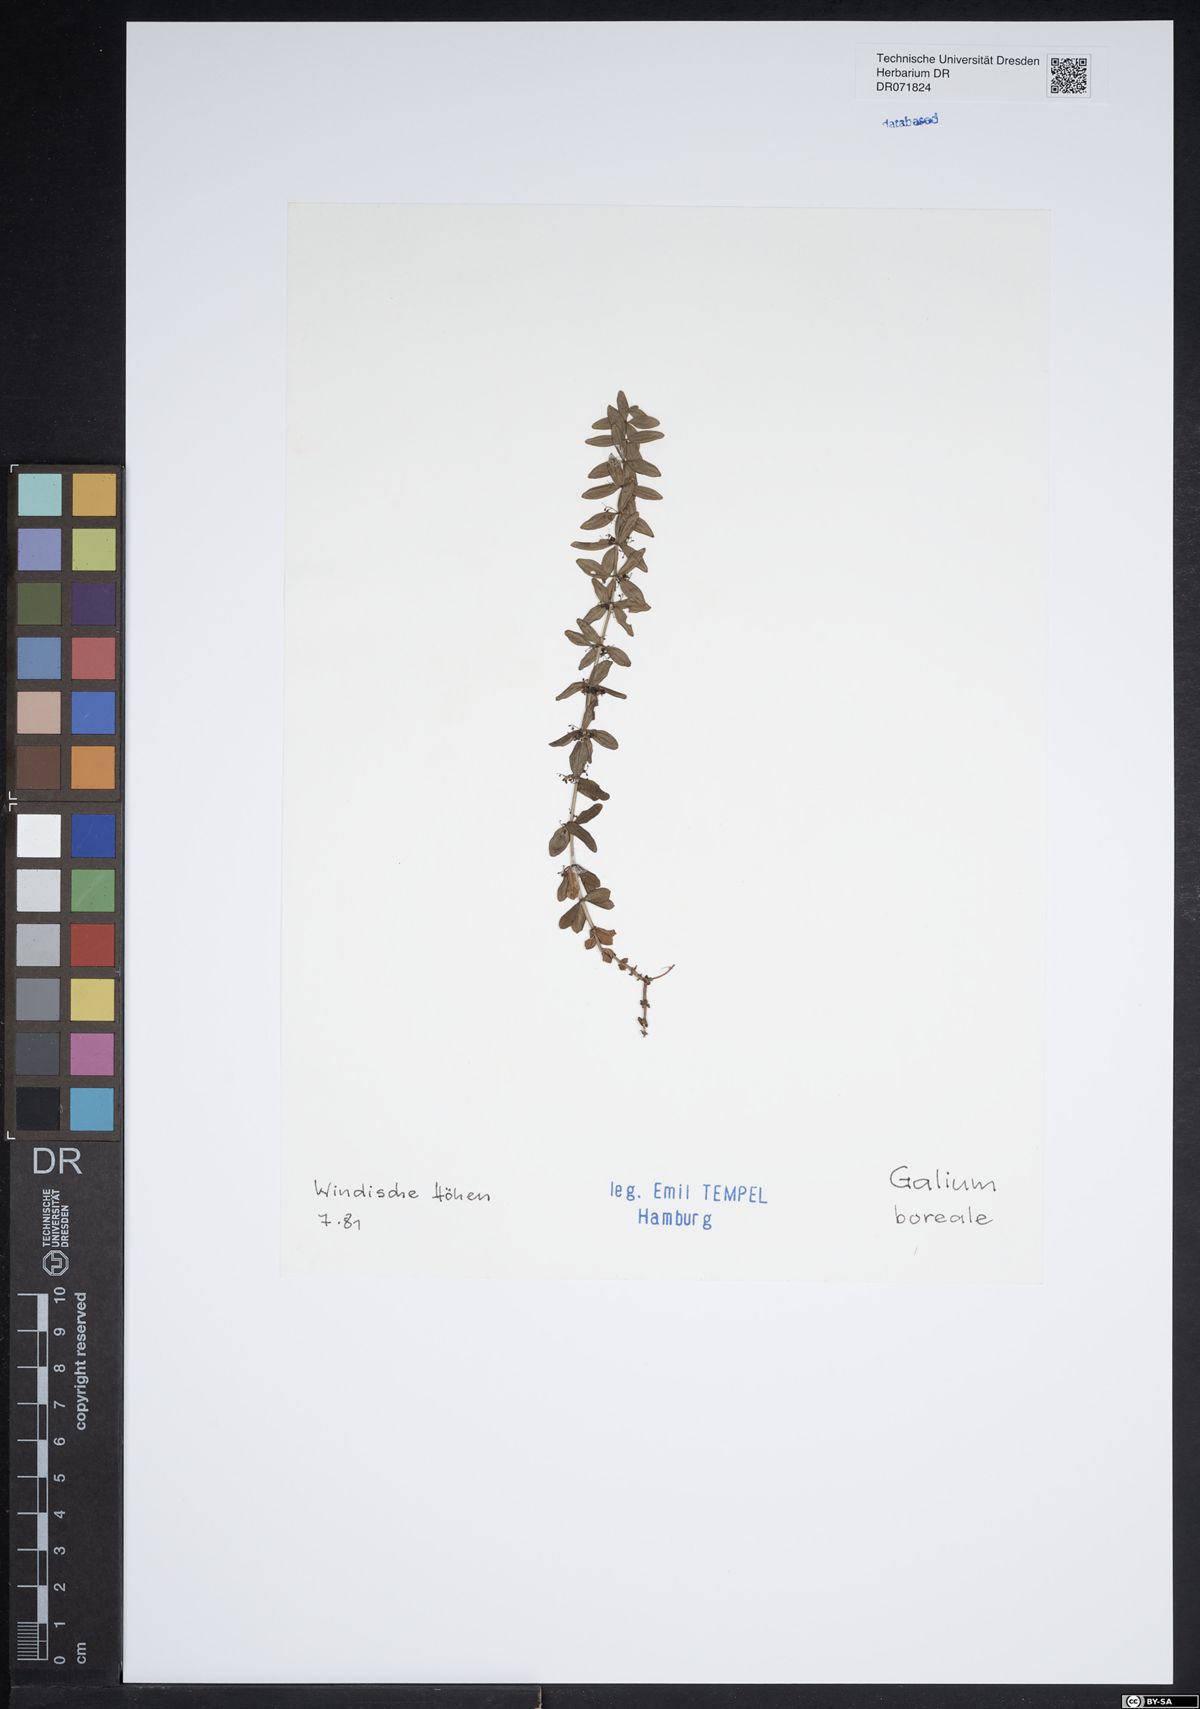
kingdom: Plantae
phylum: Tracheophyta
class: Magnoliopsida
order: Gentianales
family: Rubiaceae
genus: Galium
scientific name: Galium boreale
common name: Northern bedstraw
